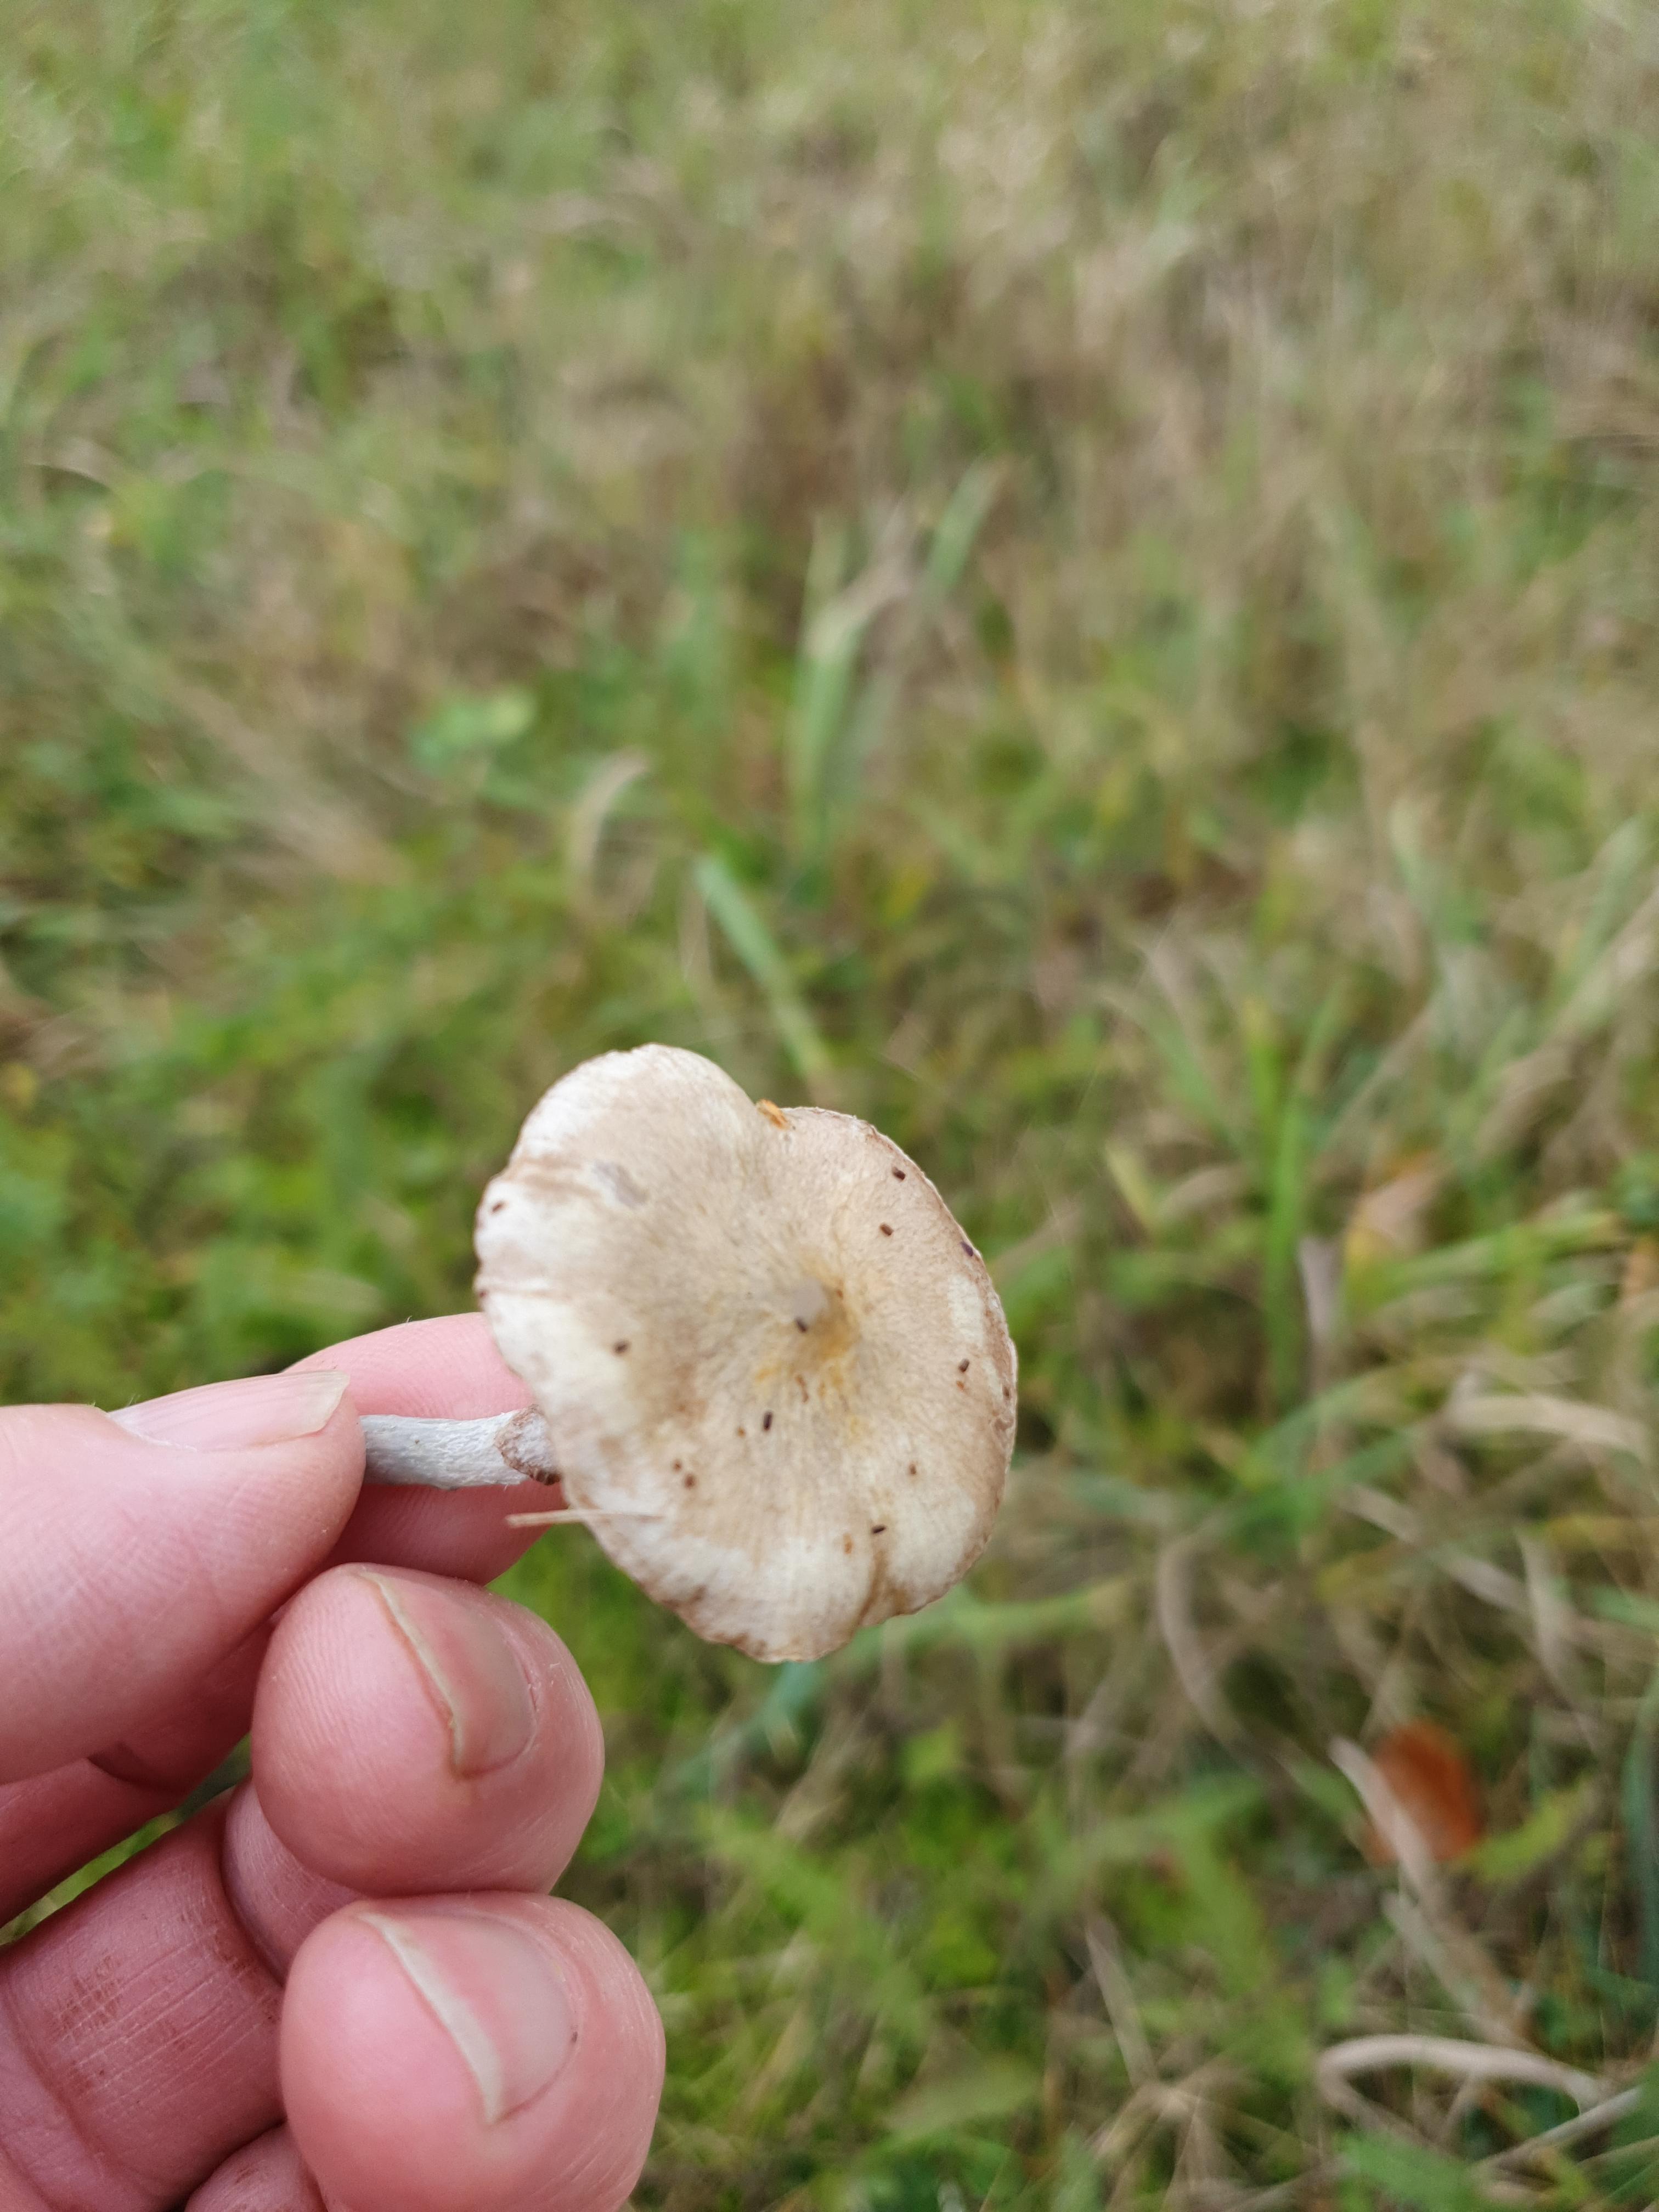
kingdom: Fungi
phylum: Basidiomycota
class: Agaricomycetes
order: Agaricales
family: Strophariaceae
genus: Stropharia
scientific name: Stropharia cyanea
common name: blågrøn bredblad
